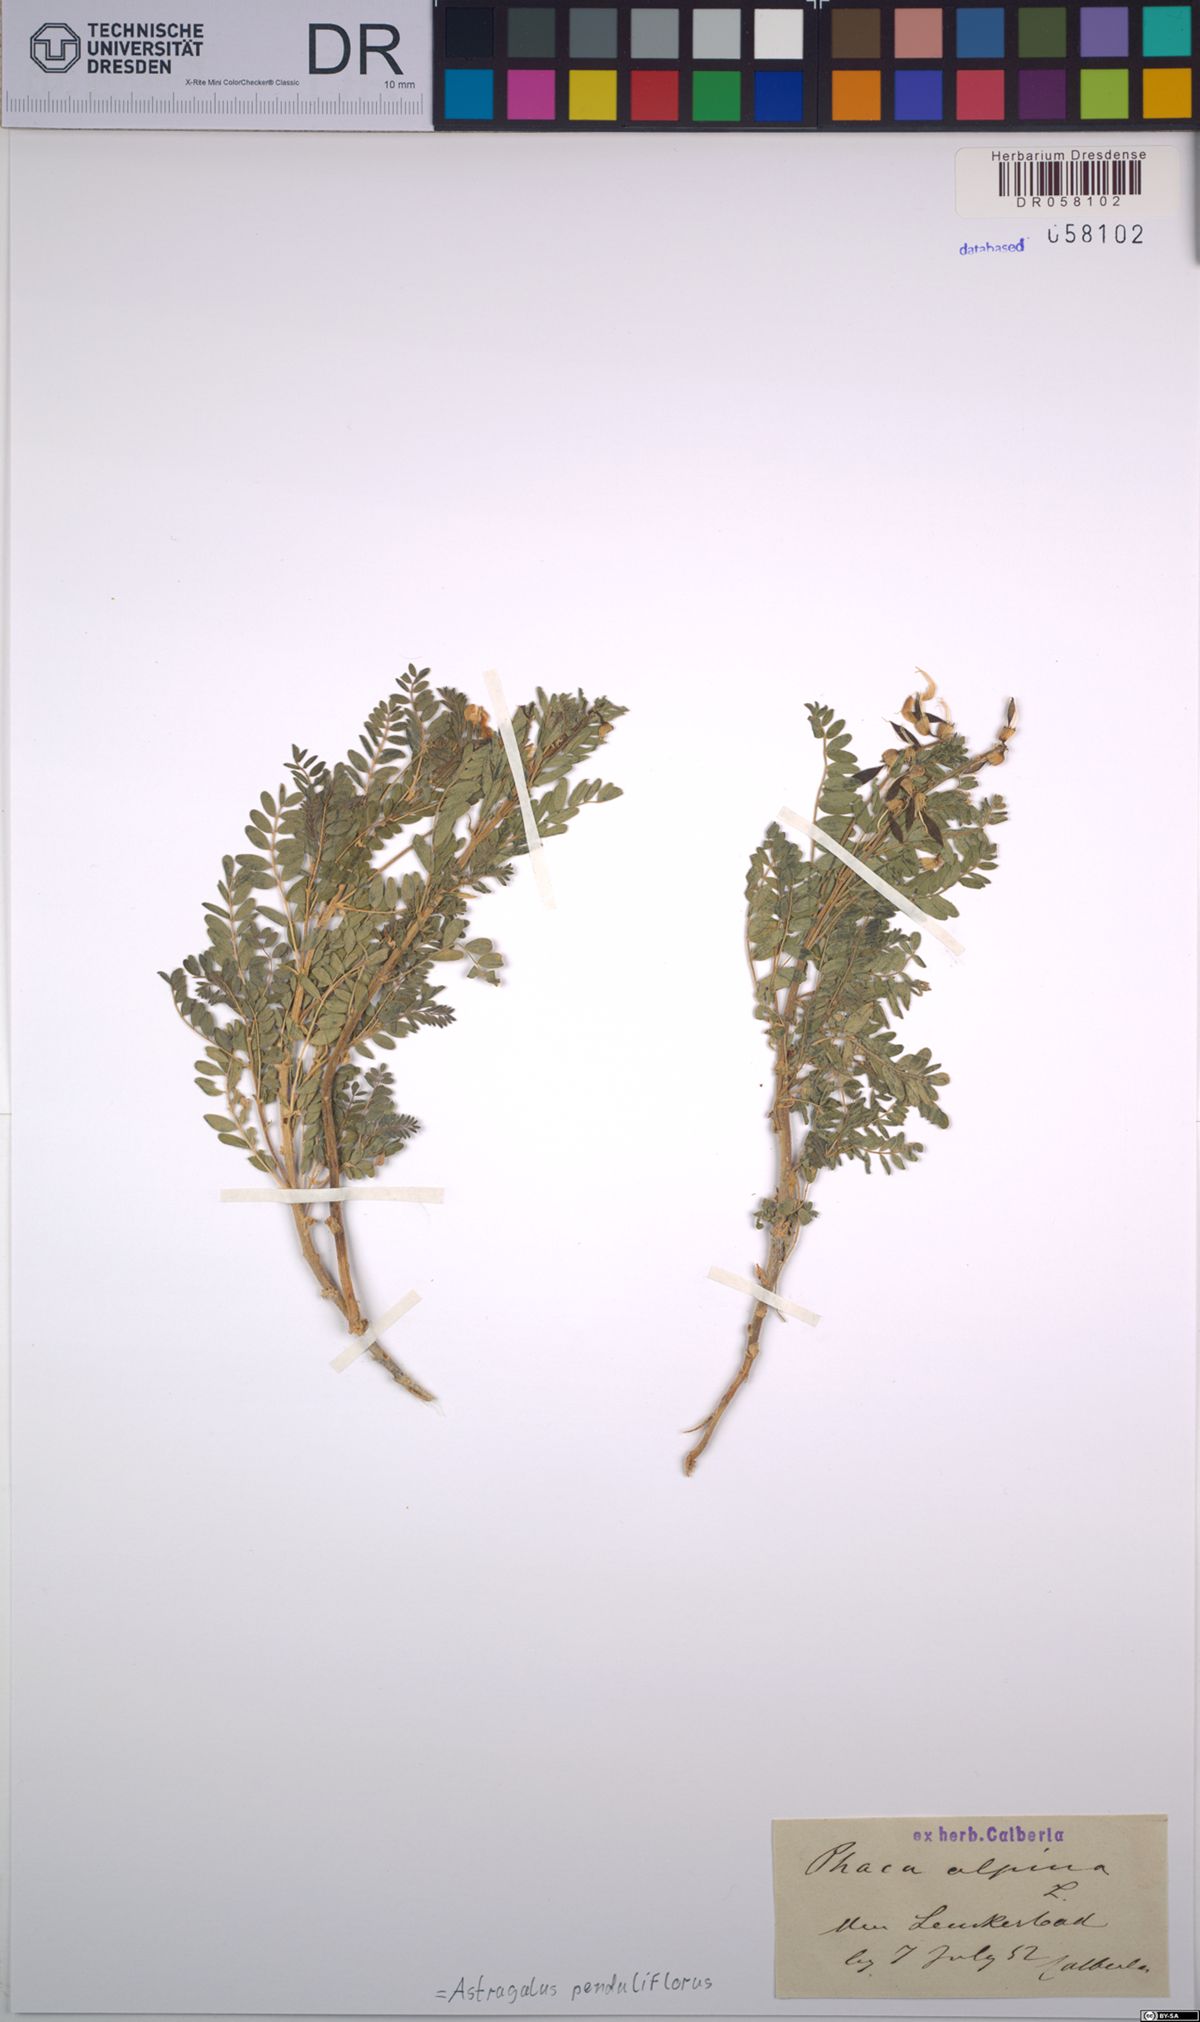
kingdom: Plantae
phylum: Tracheophyta
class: Magnoliopsida
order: Fabales
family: Fabaceae
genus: Astragalus
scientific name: Astragalus penduliflorus
